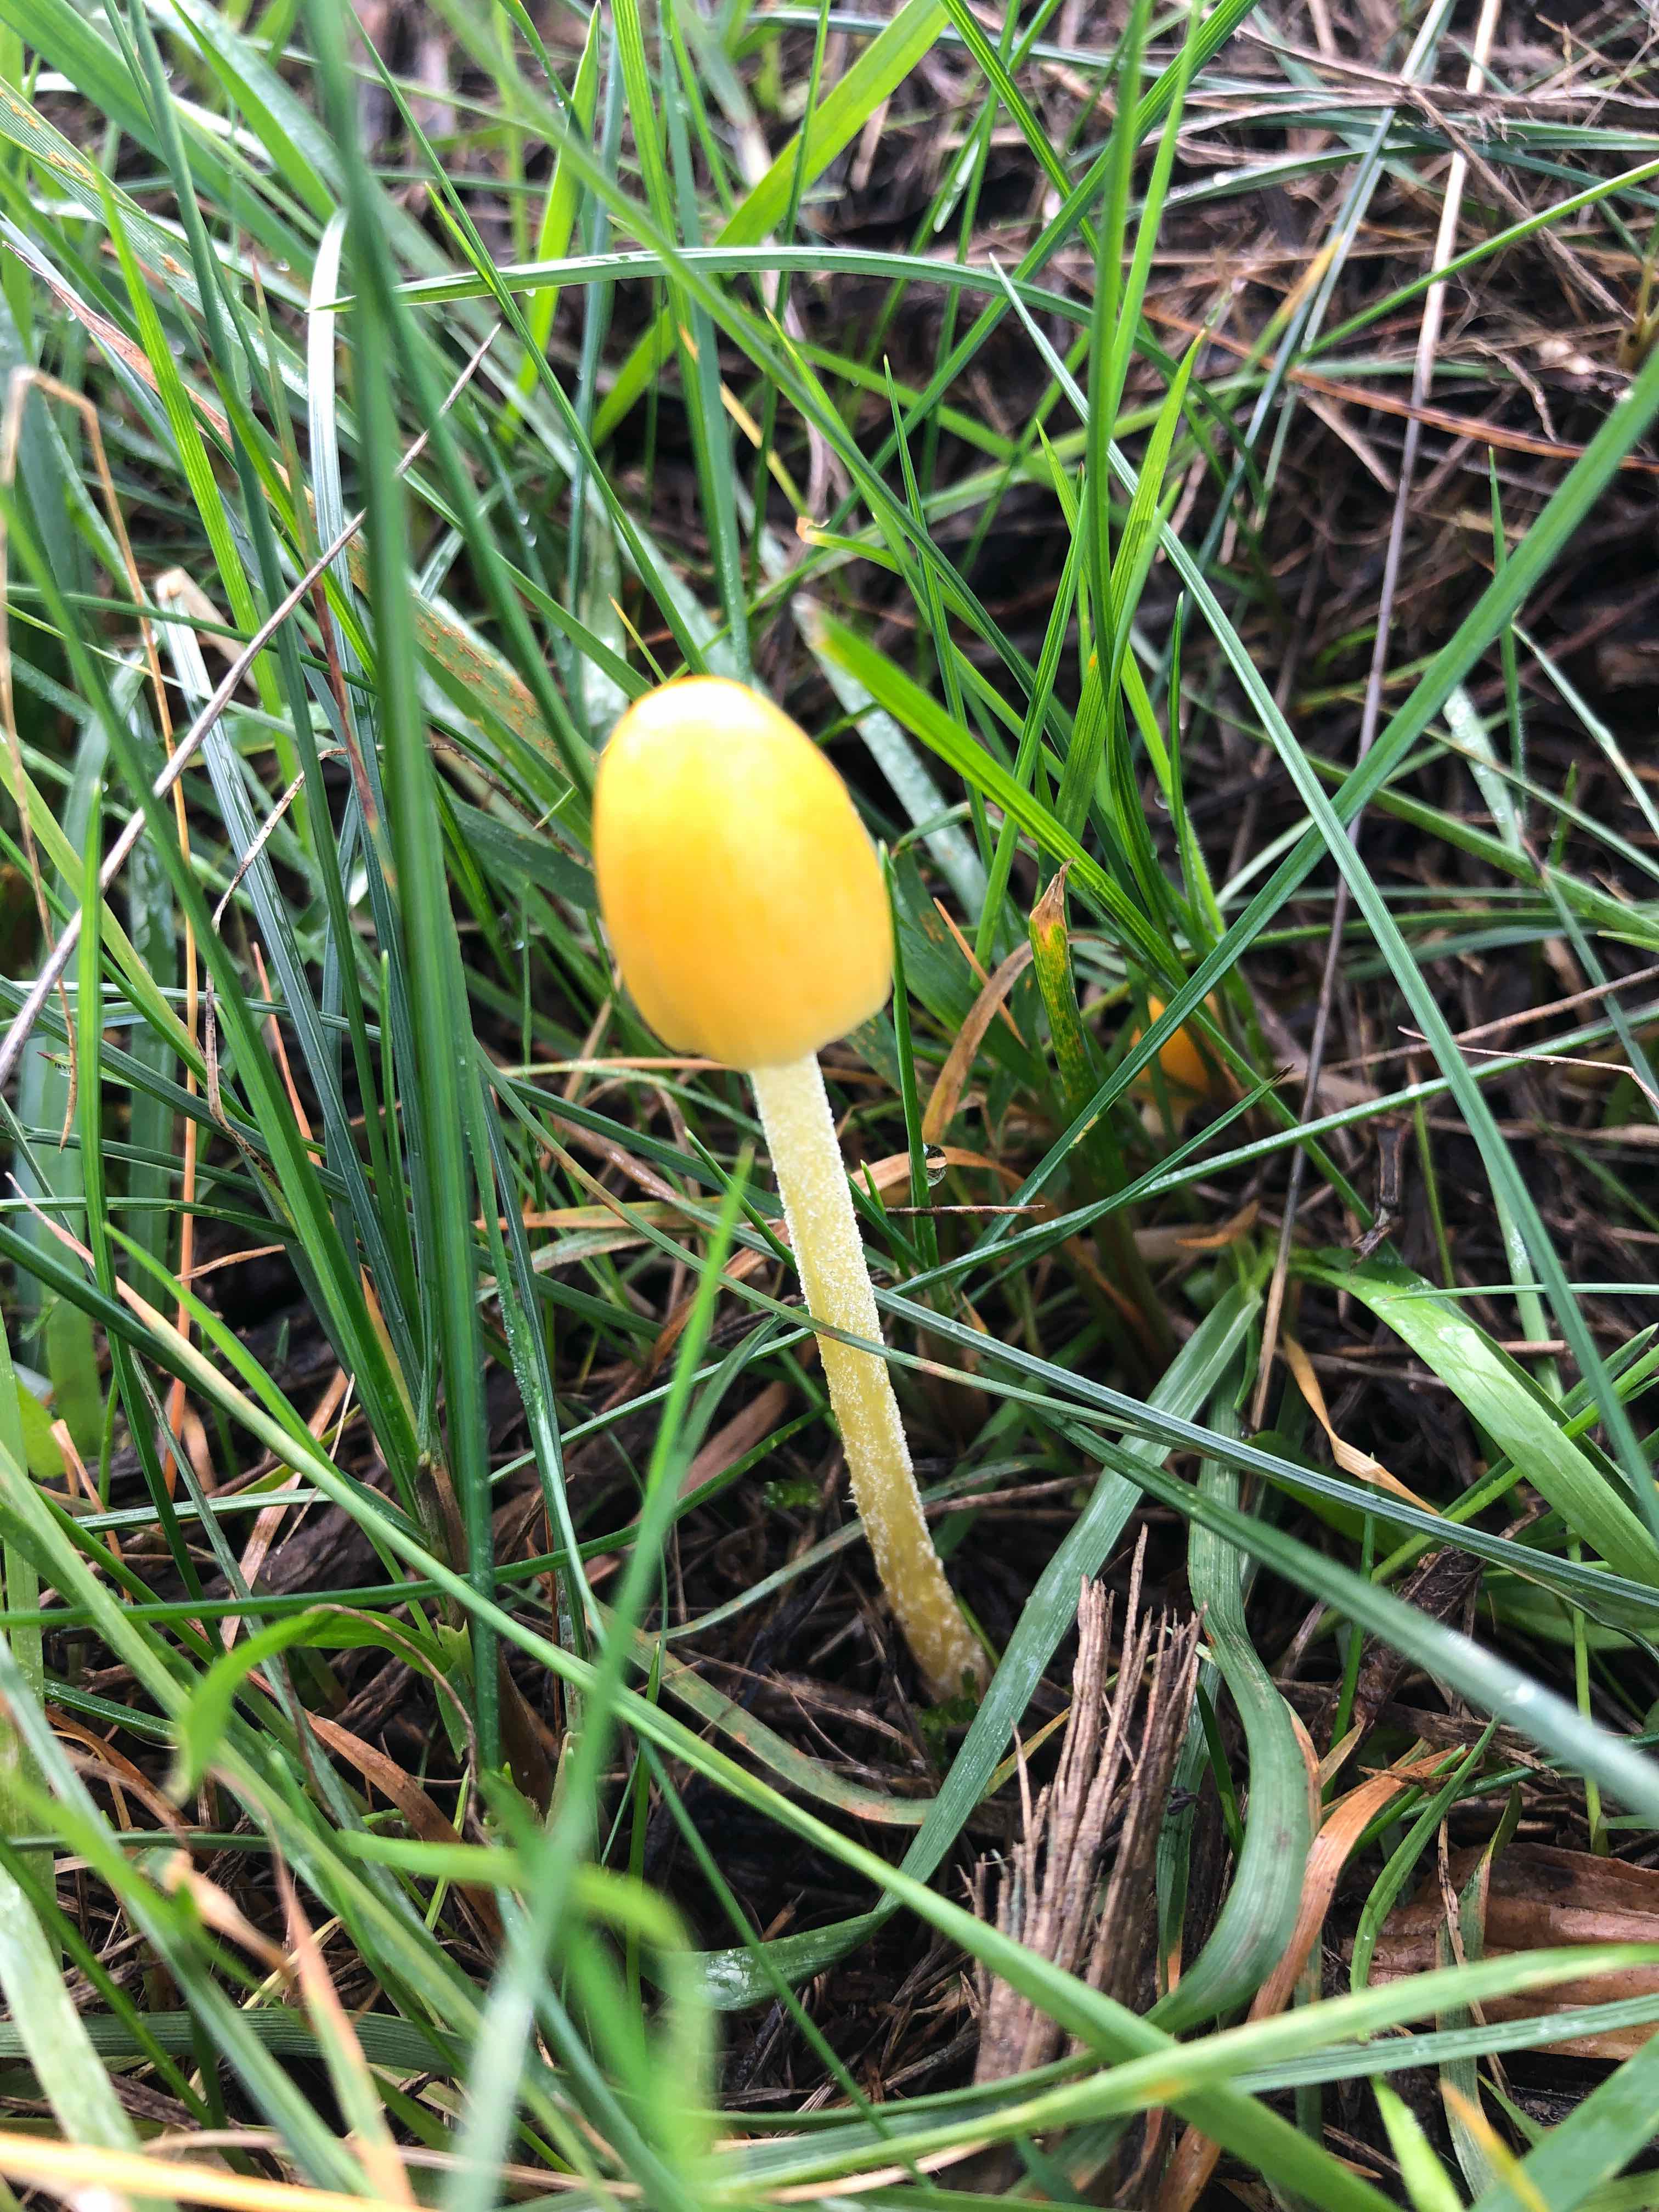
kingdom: Fungi
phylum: Basidiomycota
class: Agaricomycetes
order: Agaricales
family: Bolbitiaceae
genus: Bolbitius
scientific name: Bolbitius titubans
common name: almindelig gulhat
